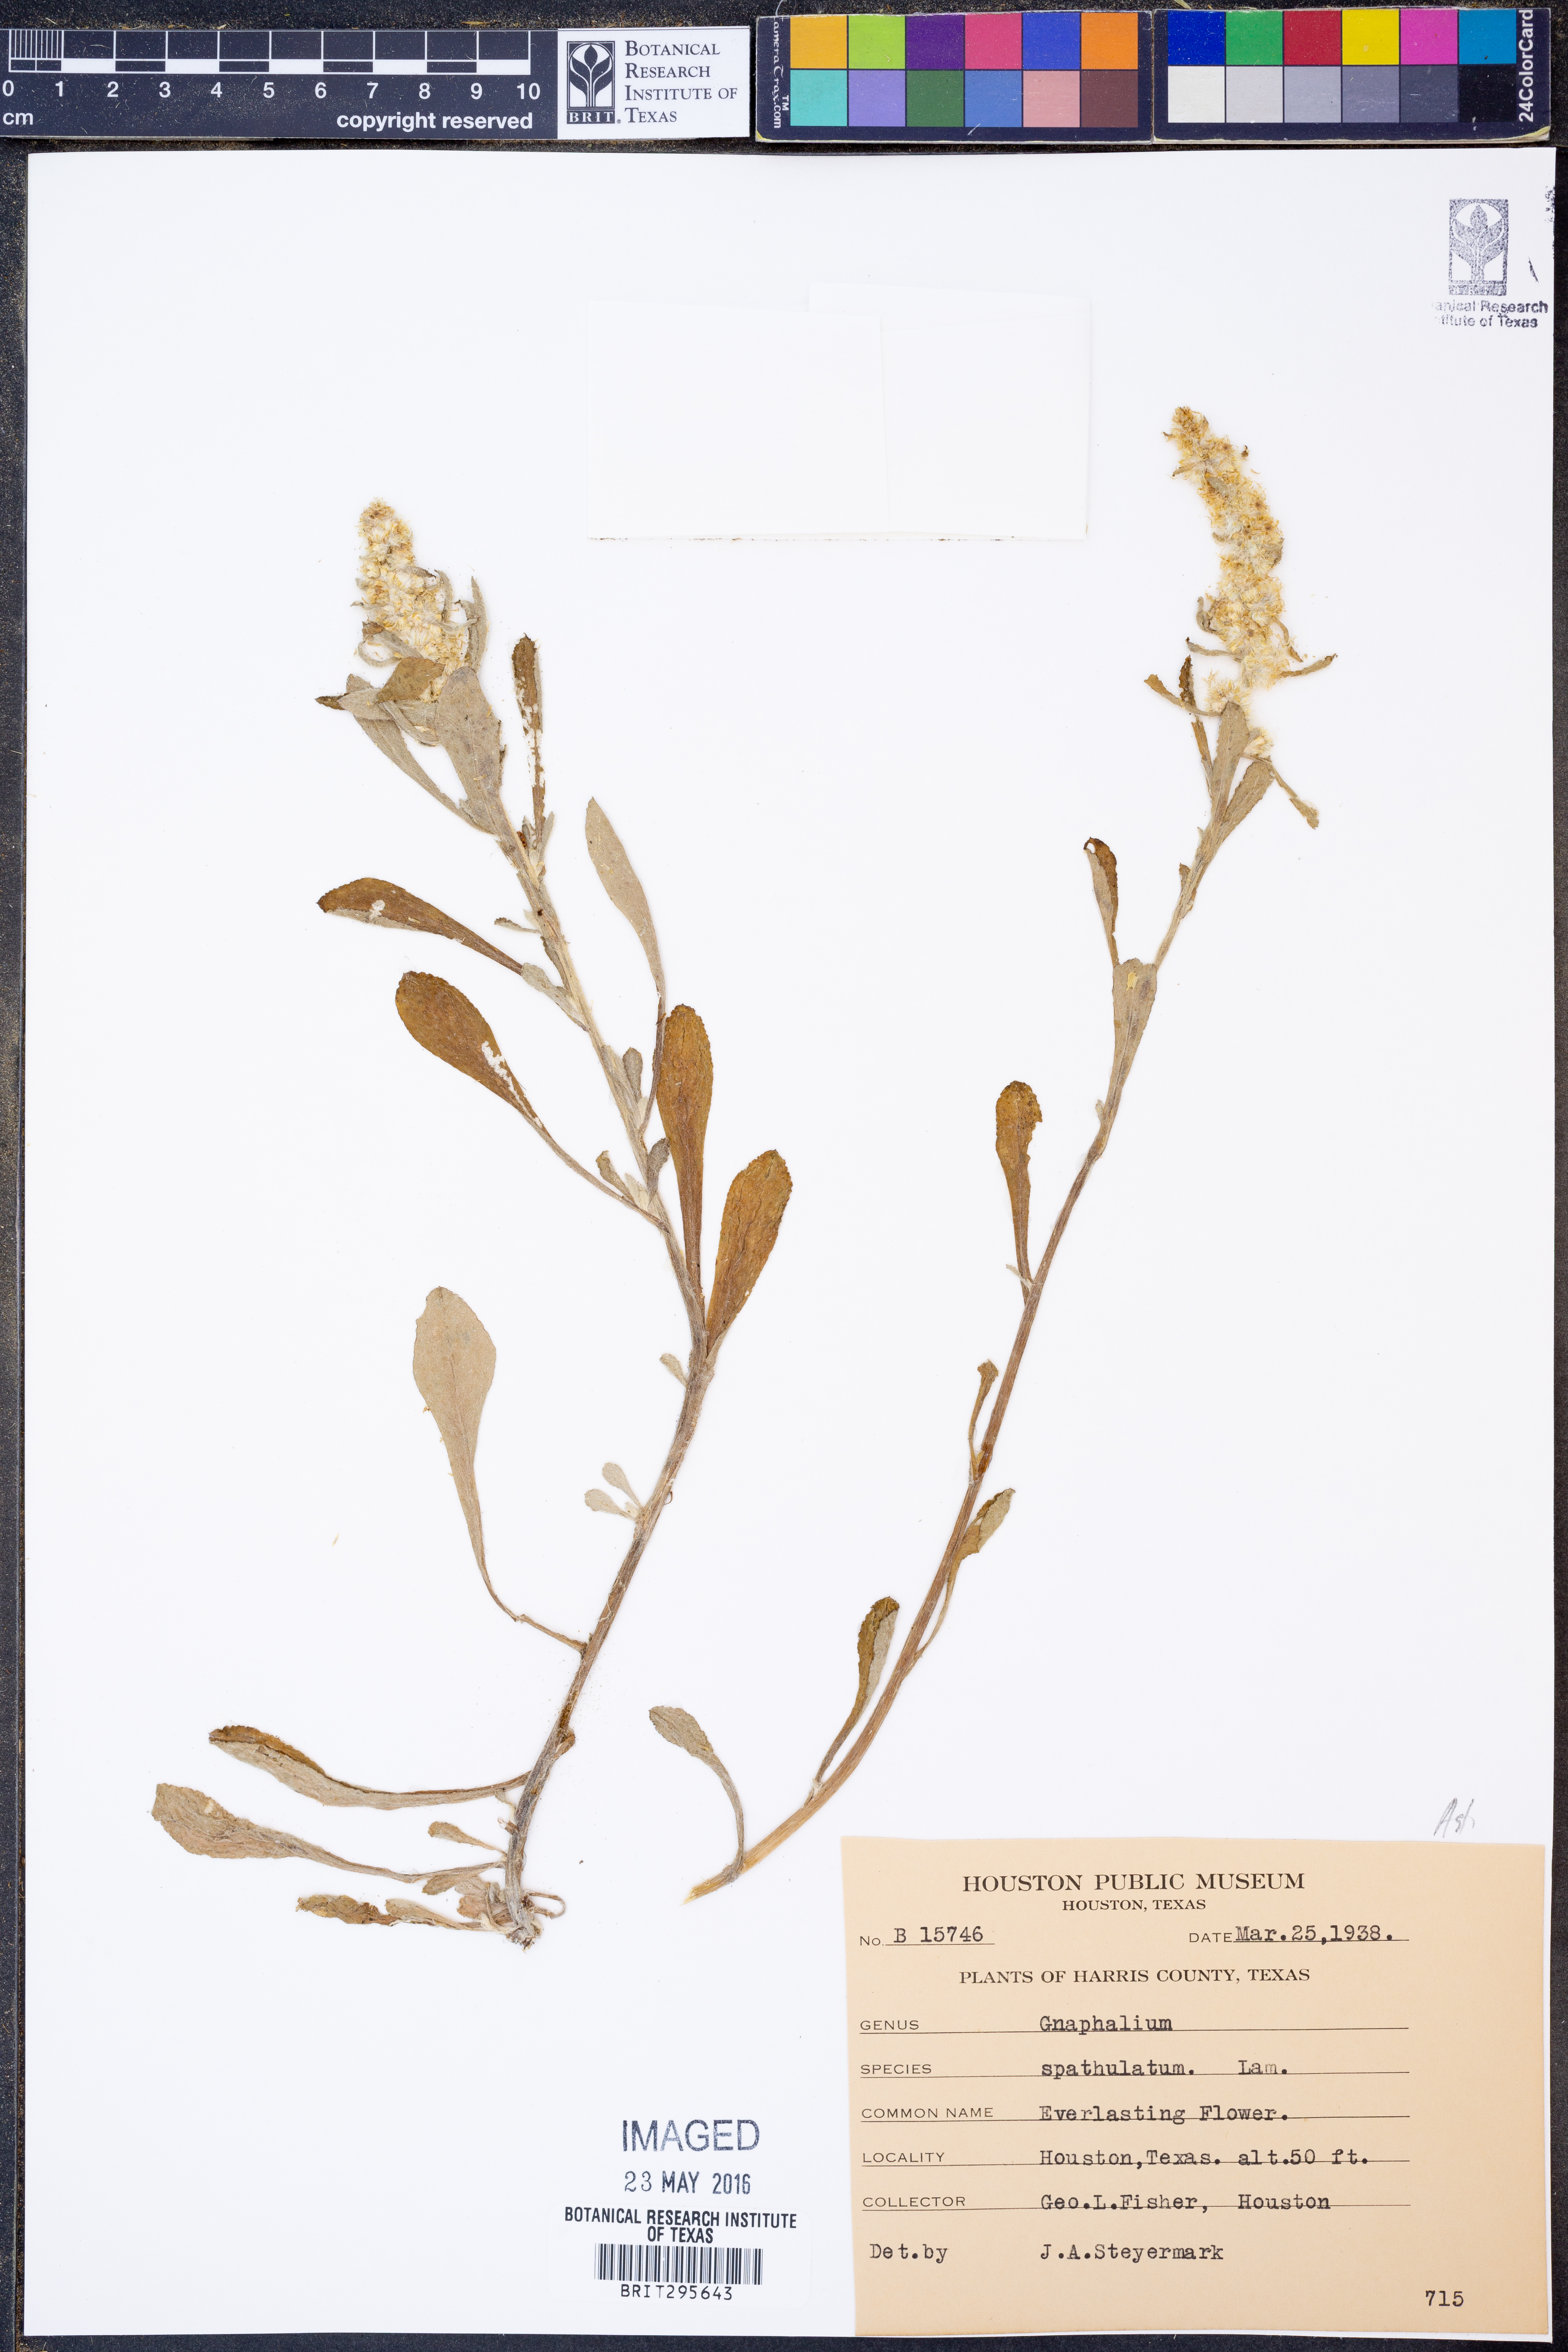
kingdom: Plantae
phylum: Tracheophyta
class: Magnoliopsida
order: Asterales
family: Asteraceae
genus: Filago
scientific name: Filago pyramidata
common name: Broad-leaved cudweed
